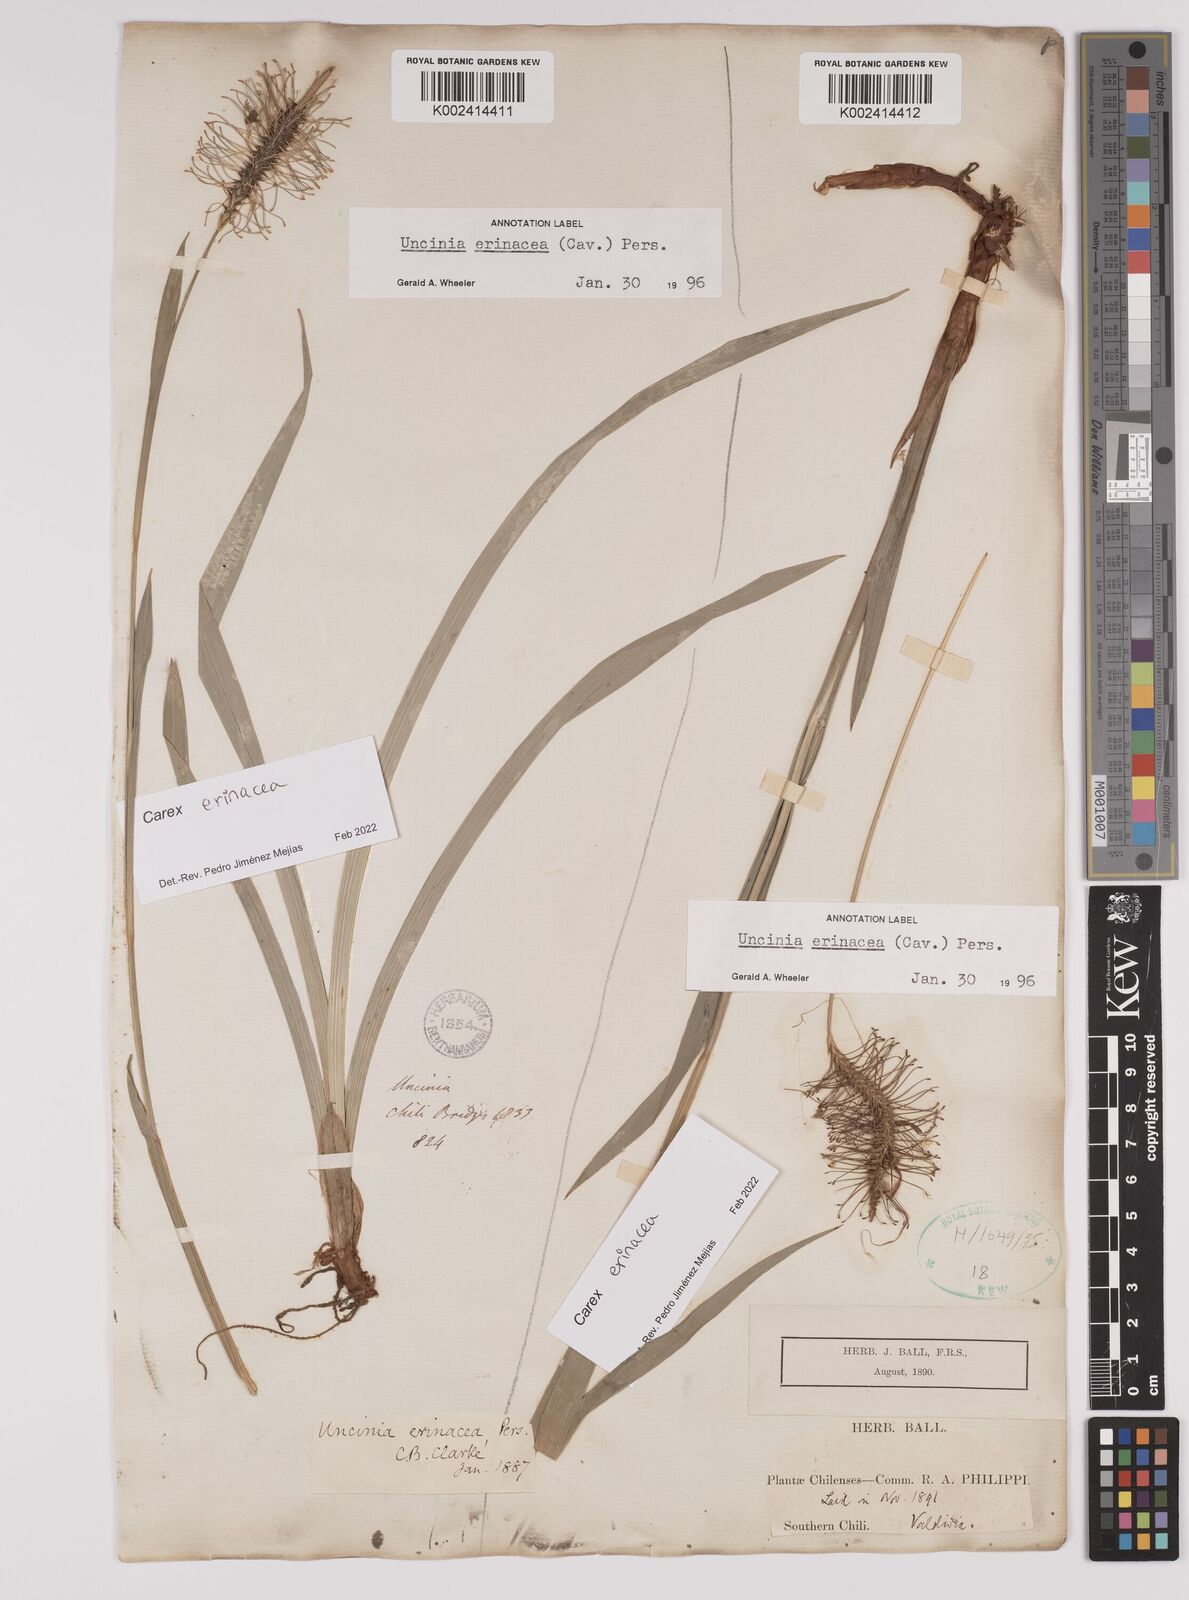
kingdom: Plantae
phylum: Tracheophyta
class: Liliopsida
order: Poales
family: Cyperaceae
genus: Carex
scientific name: Carex erinacea
